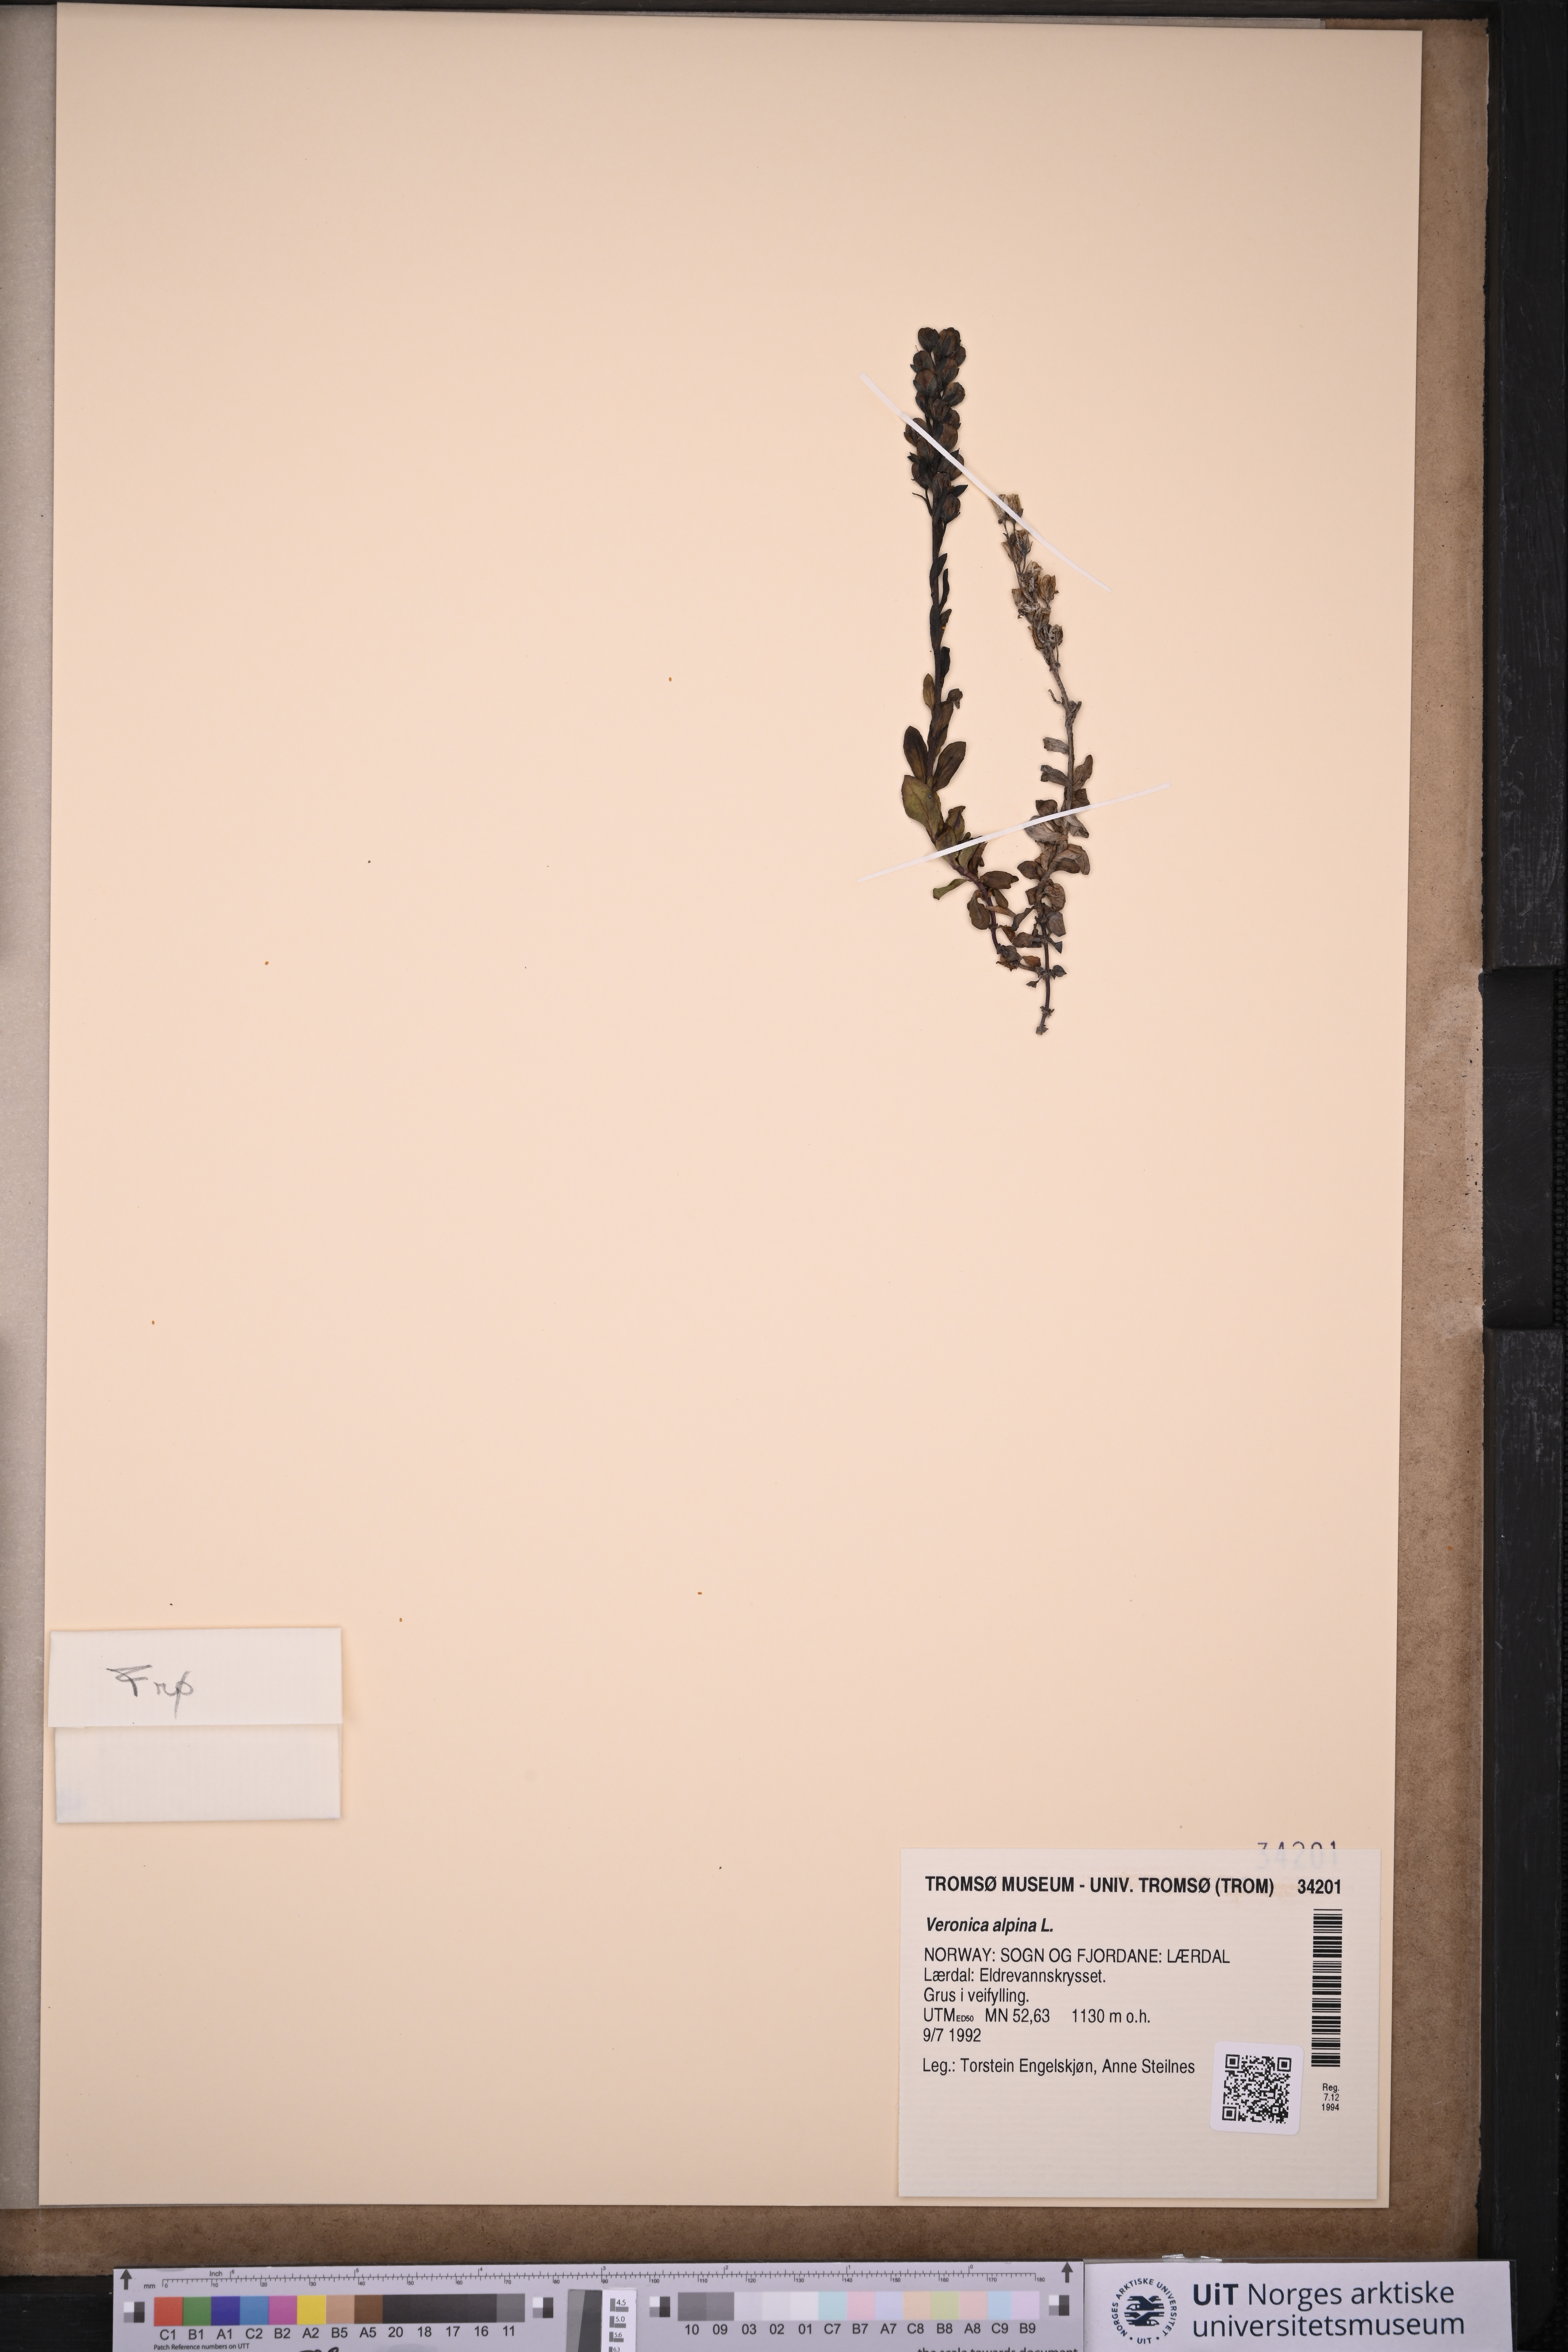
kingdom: Plantae
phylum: Tracheophyta
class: Magnoliopsida
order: Lamiales
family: Plantaginaceae
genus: Veronica
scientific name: Veronica alpina
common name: Alpine speedwell
